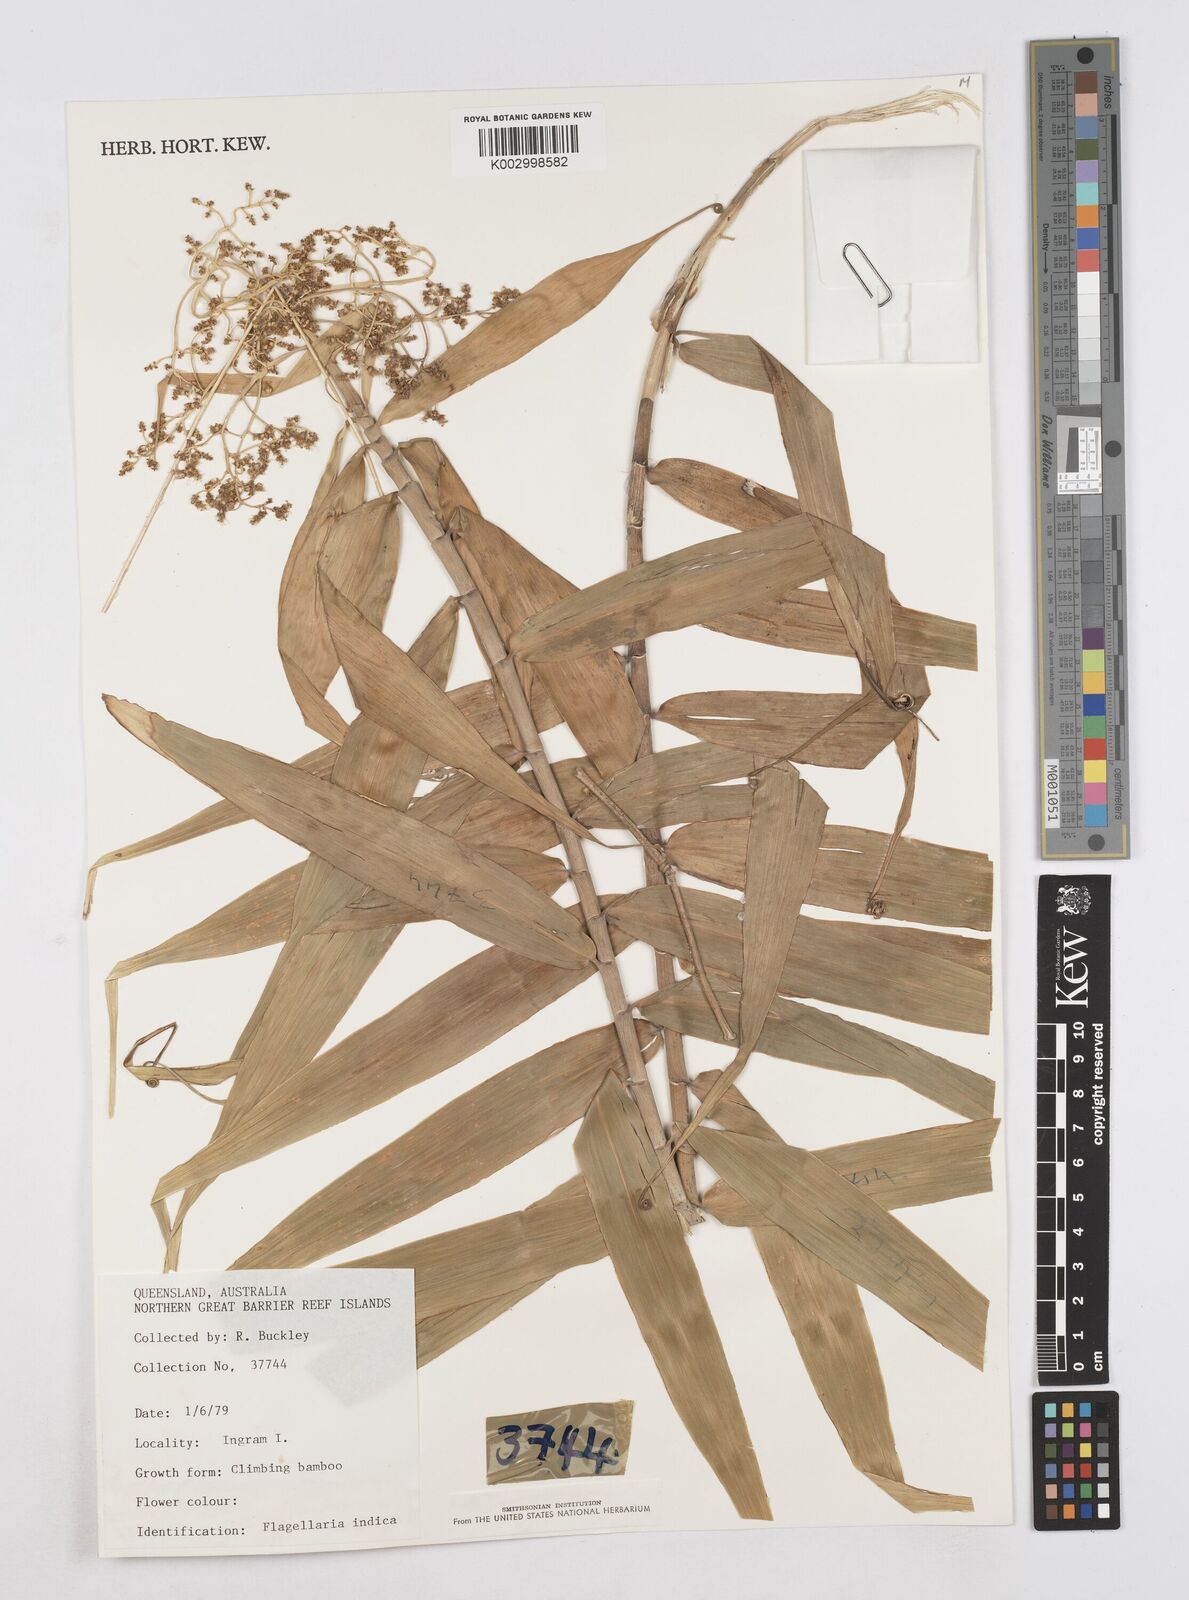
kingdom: Plantae
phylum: Tracheophyta
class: Liliopsida
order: Poales
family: Flagellariaceae
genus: Flagellaria
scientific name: Flagellaria indica
